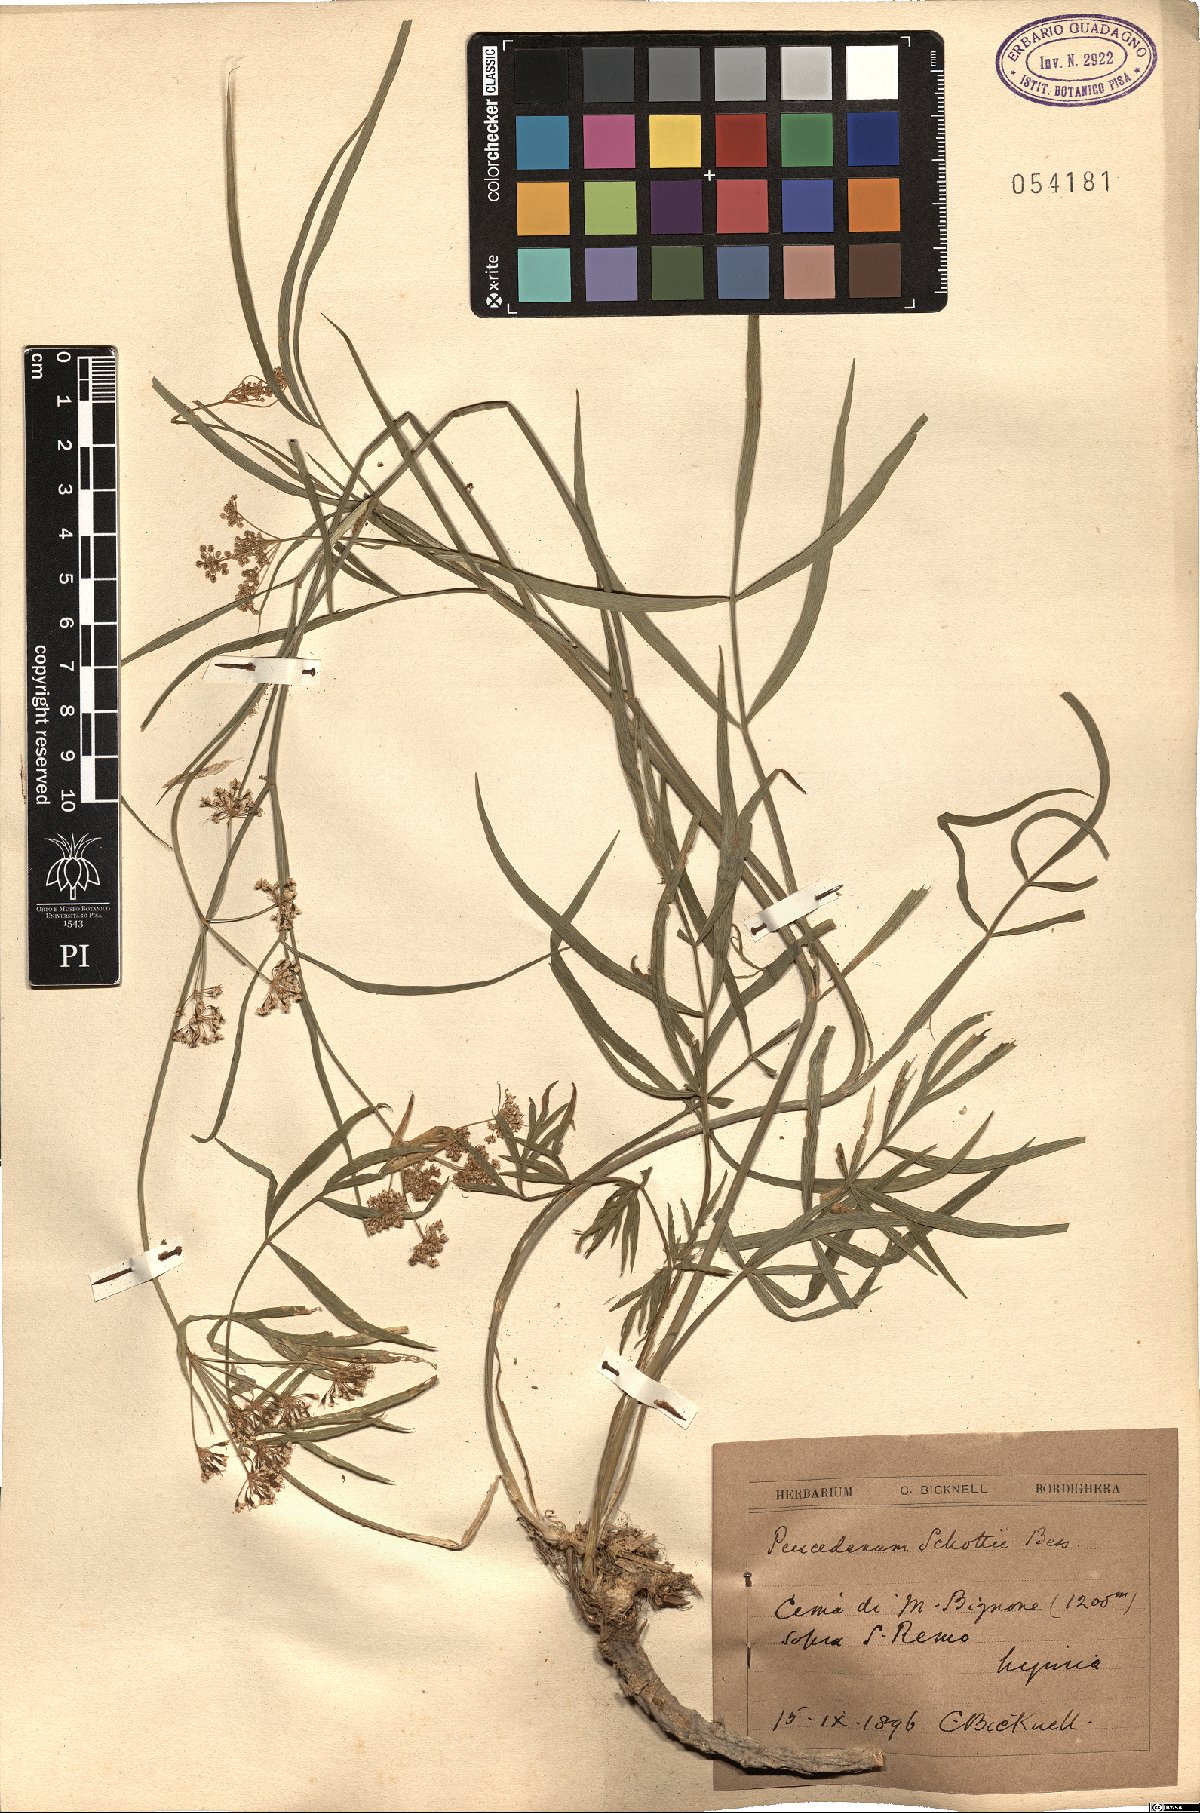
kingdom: Plantae
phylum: Tracheophyta
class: Magnoliopsida
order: Apiales
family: Apiaceae
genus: Dichoropetalum
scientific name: Dichoropetalum schottii
